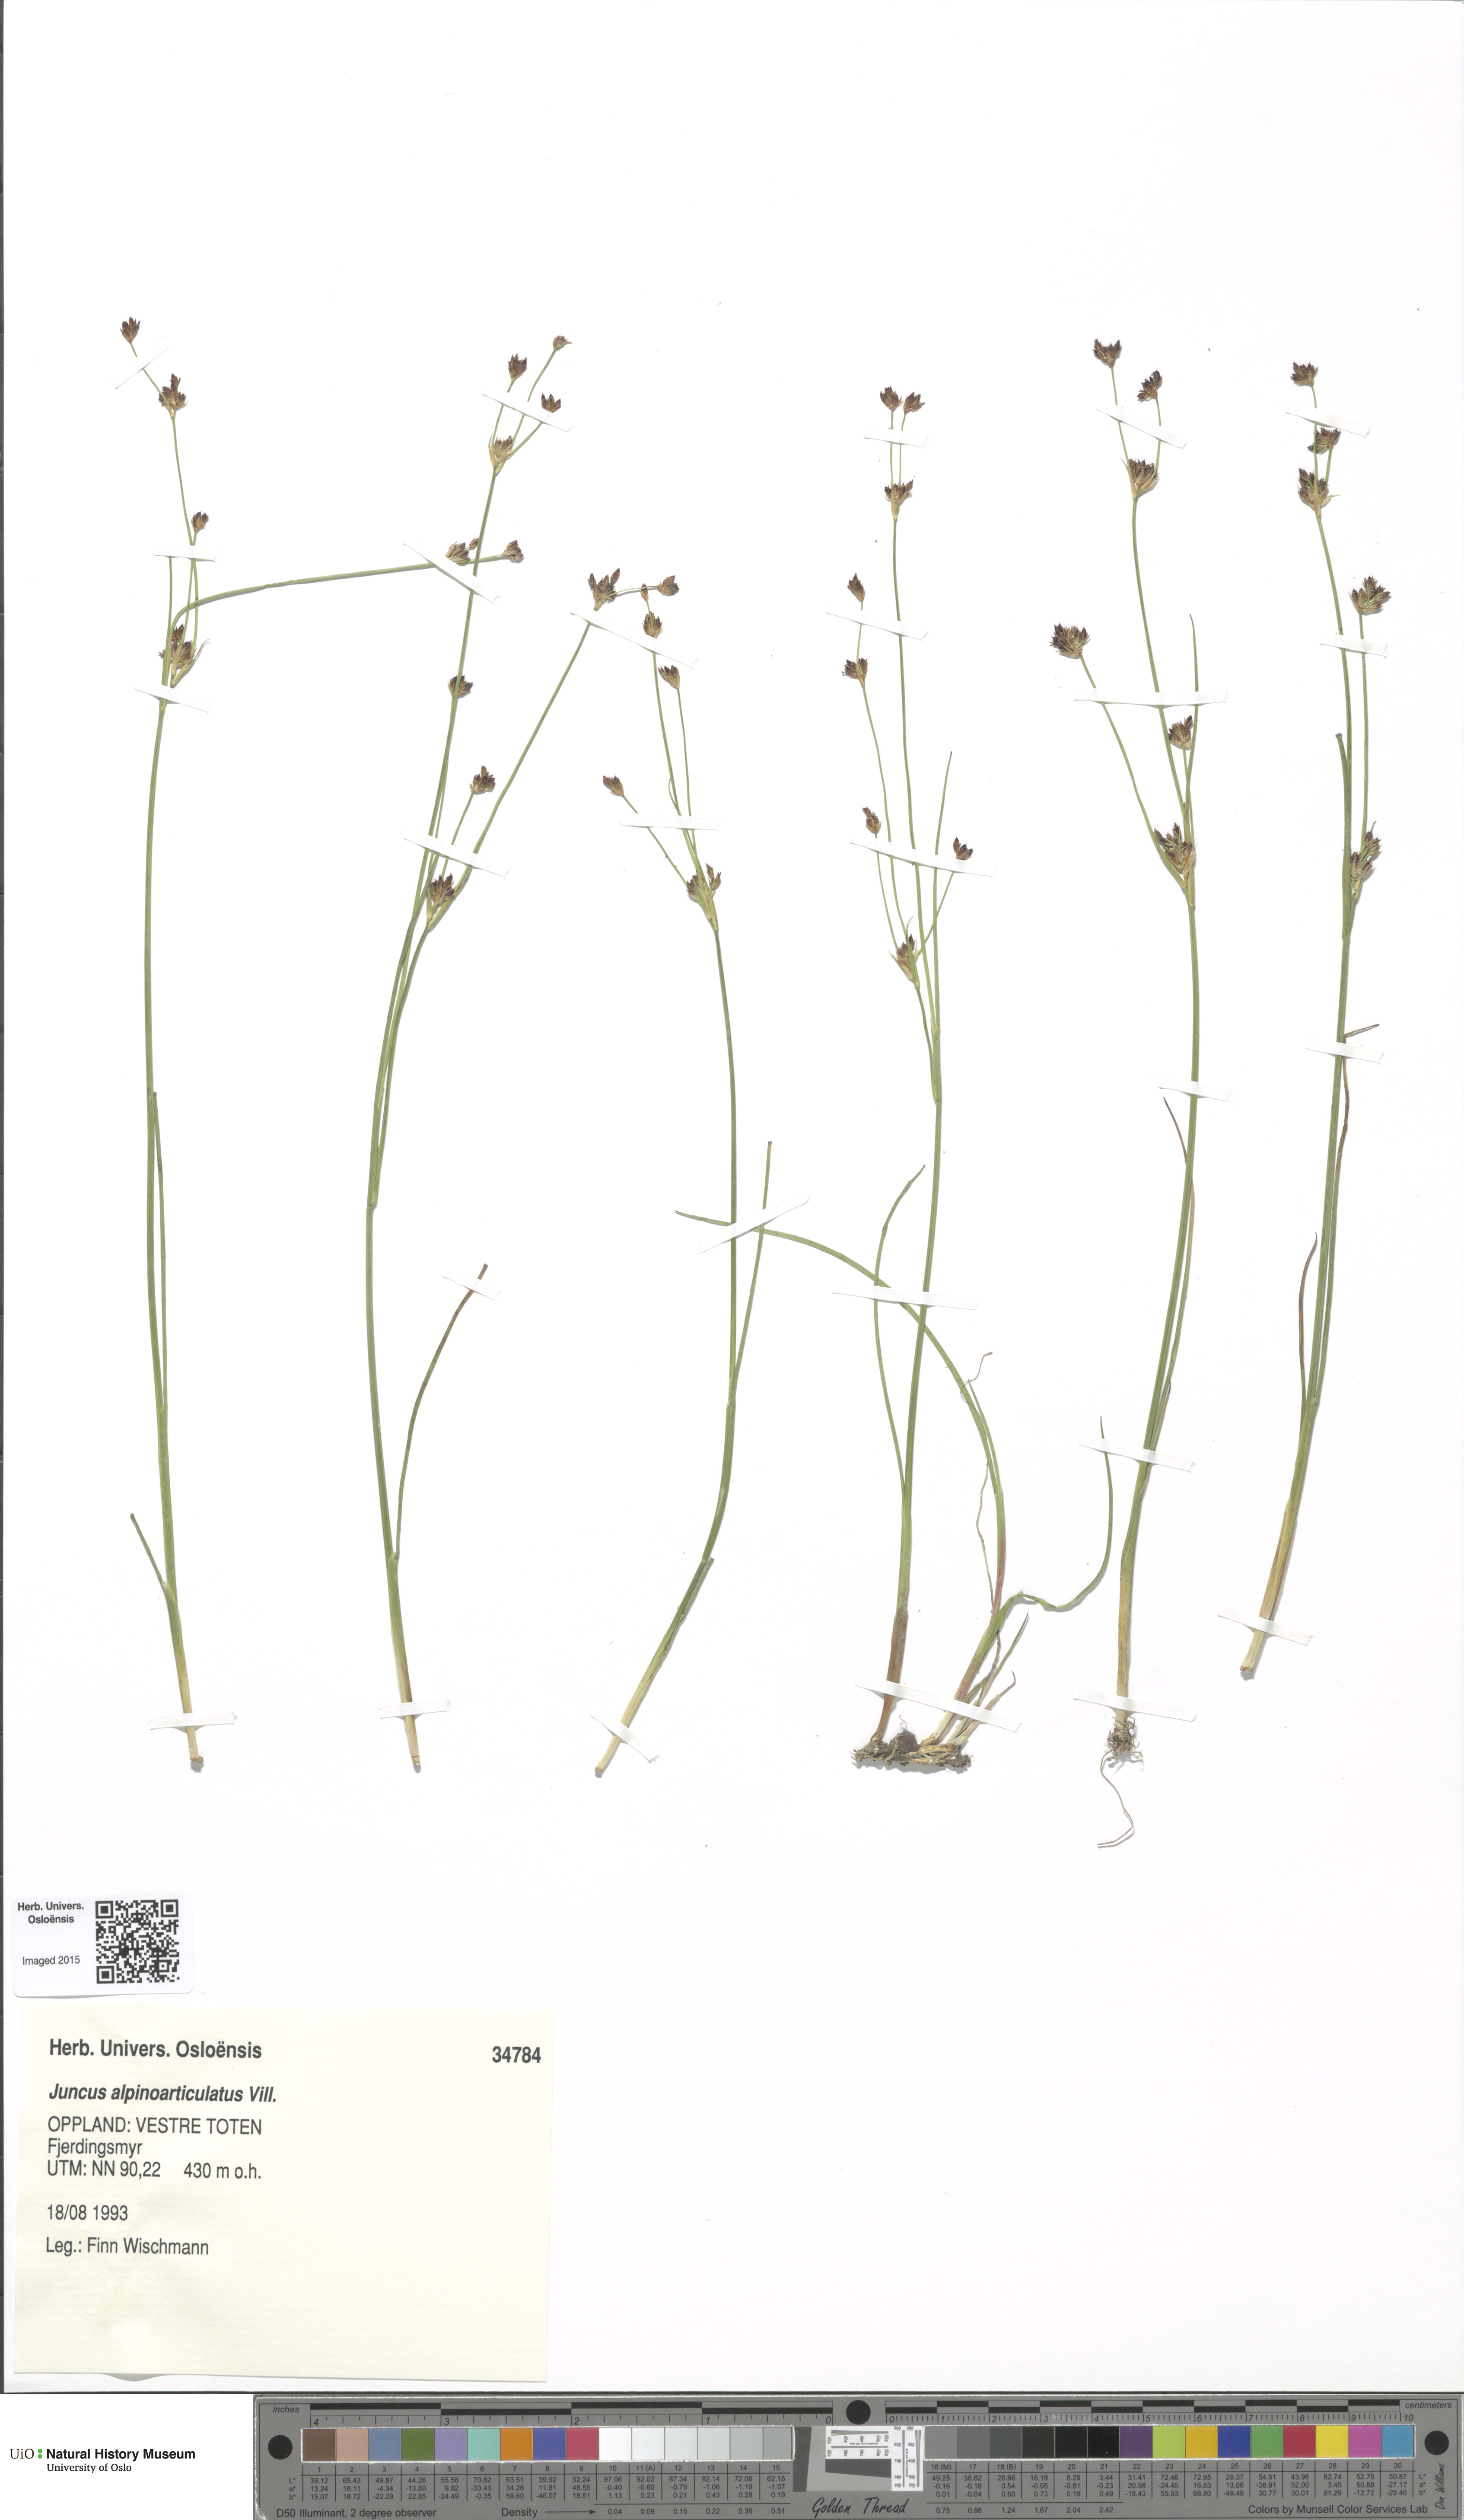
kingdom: Plantae
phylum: Tracheophyta
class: Liliopsida
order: Poales
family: Juncaceae
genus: Juncus
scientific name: Juncus alpinoarticulatus
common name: Alpine rush
